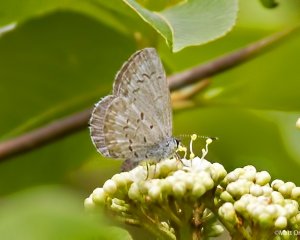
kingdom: Animalia
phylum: Arthropoda
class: Insecta
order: Lepidoptera
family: Lycaenidae
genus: Celastrina
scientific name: Celastrina lucia
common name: Northern Spring Azure
